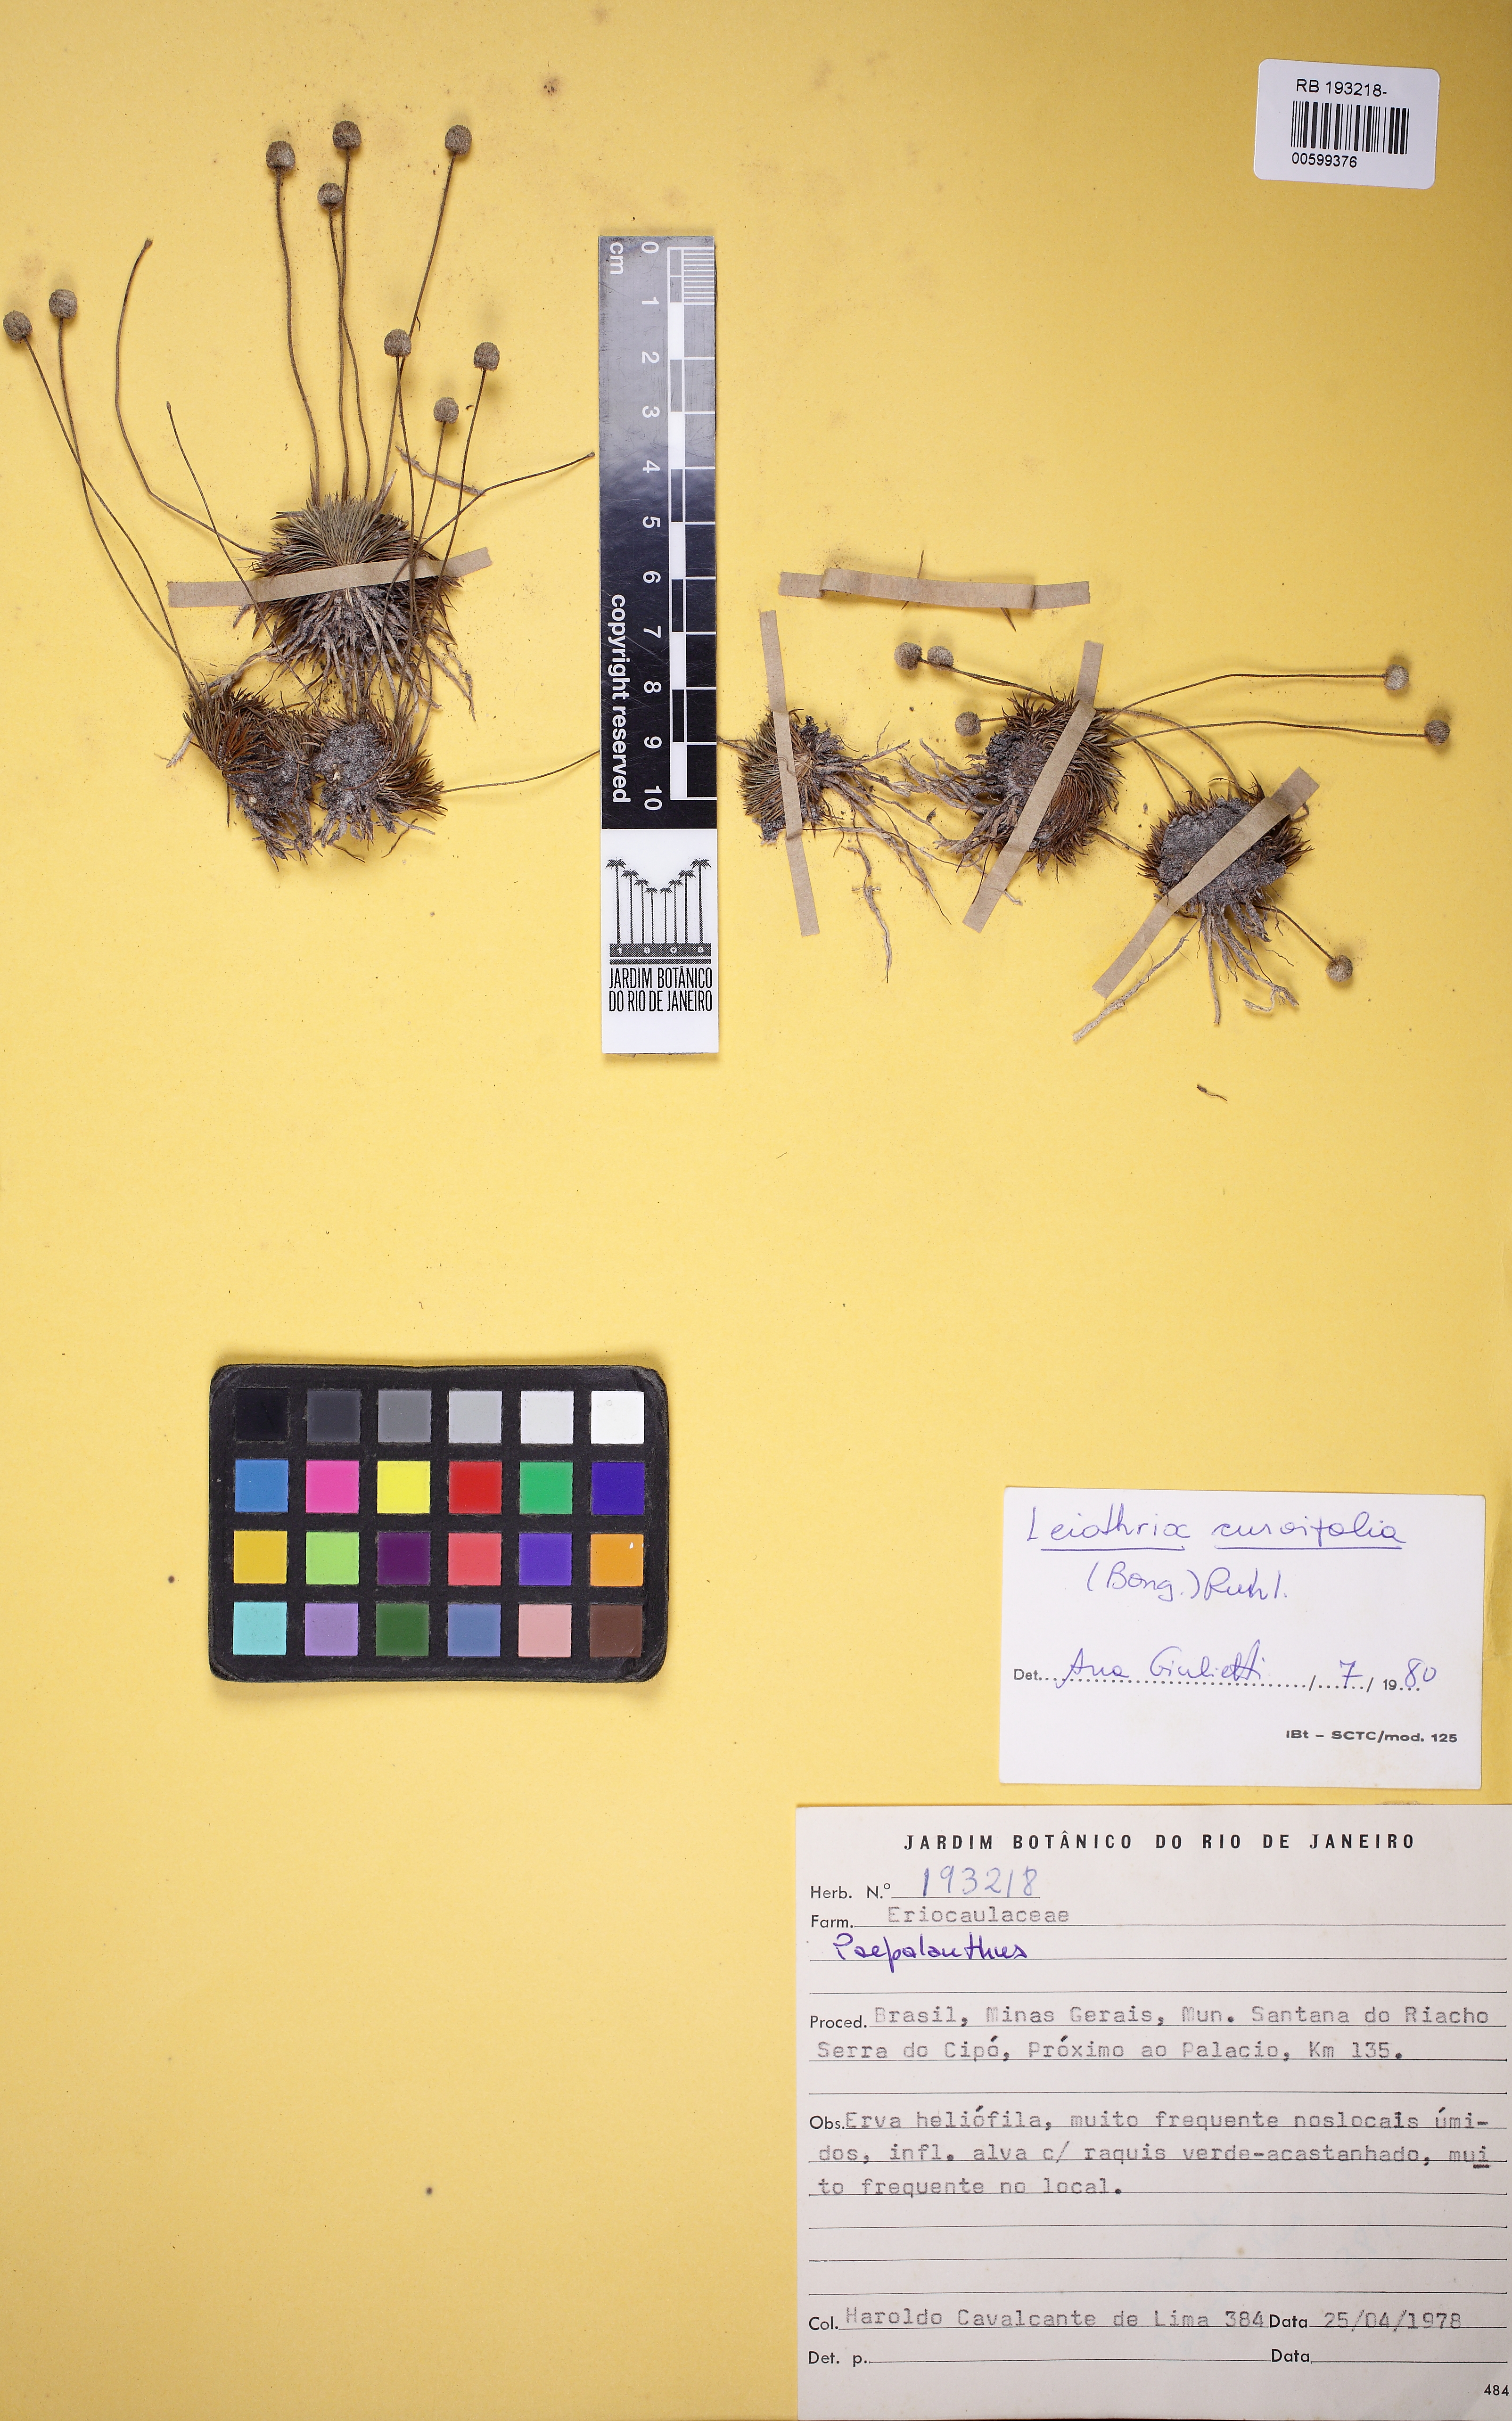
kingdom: Plantae
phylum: Tracheophyta
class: Liliopsida
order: Poales
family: Eriocaulaceae
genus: Leiothrix
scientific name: Leiothrix curvifolia
